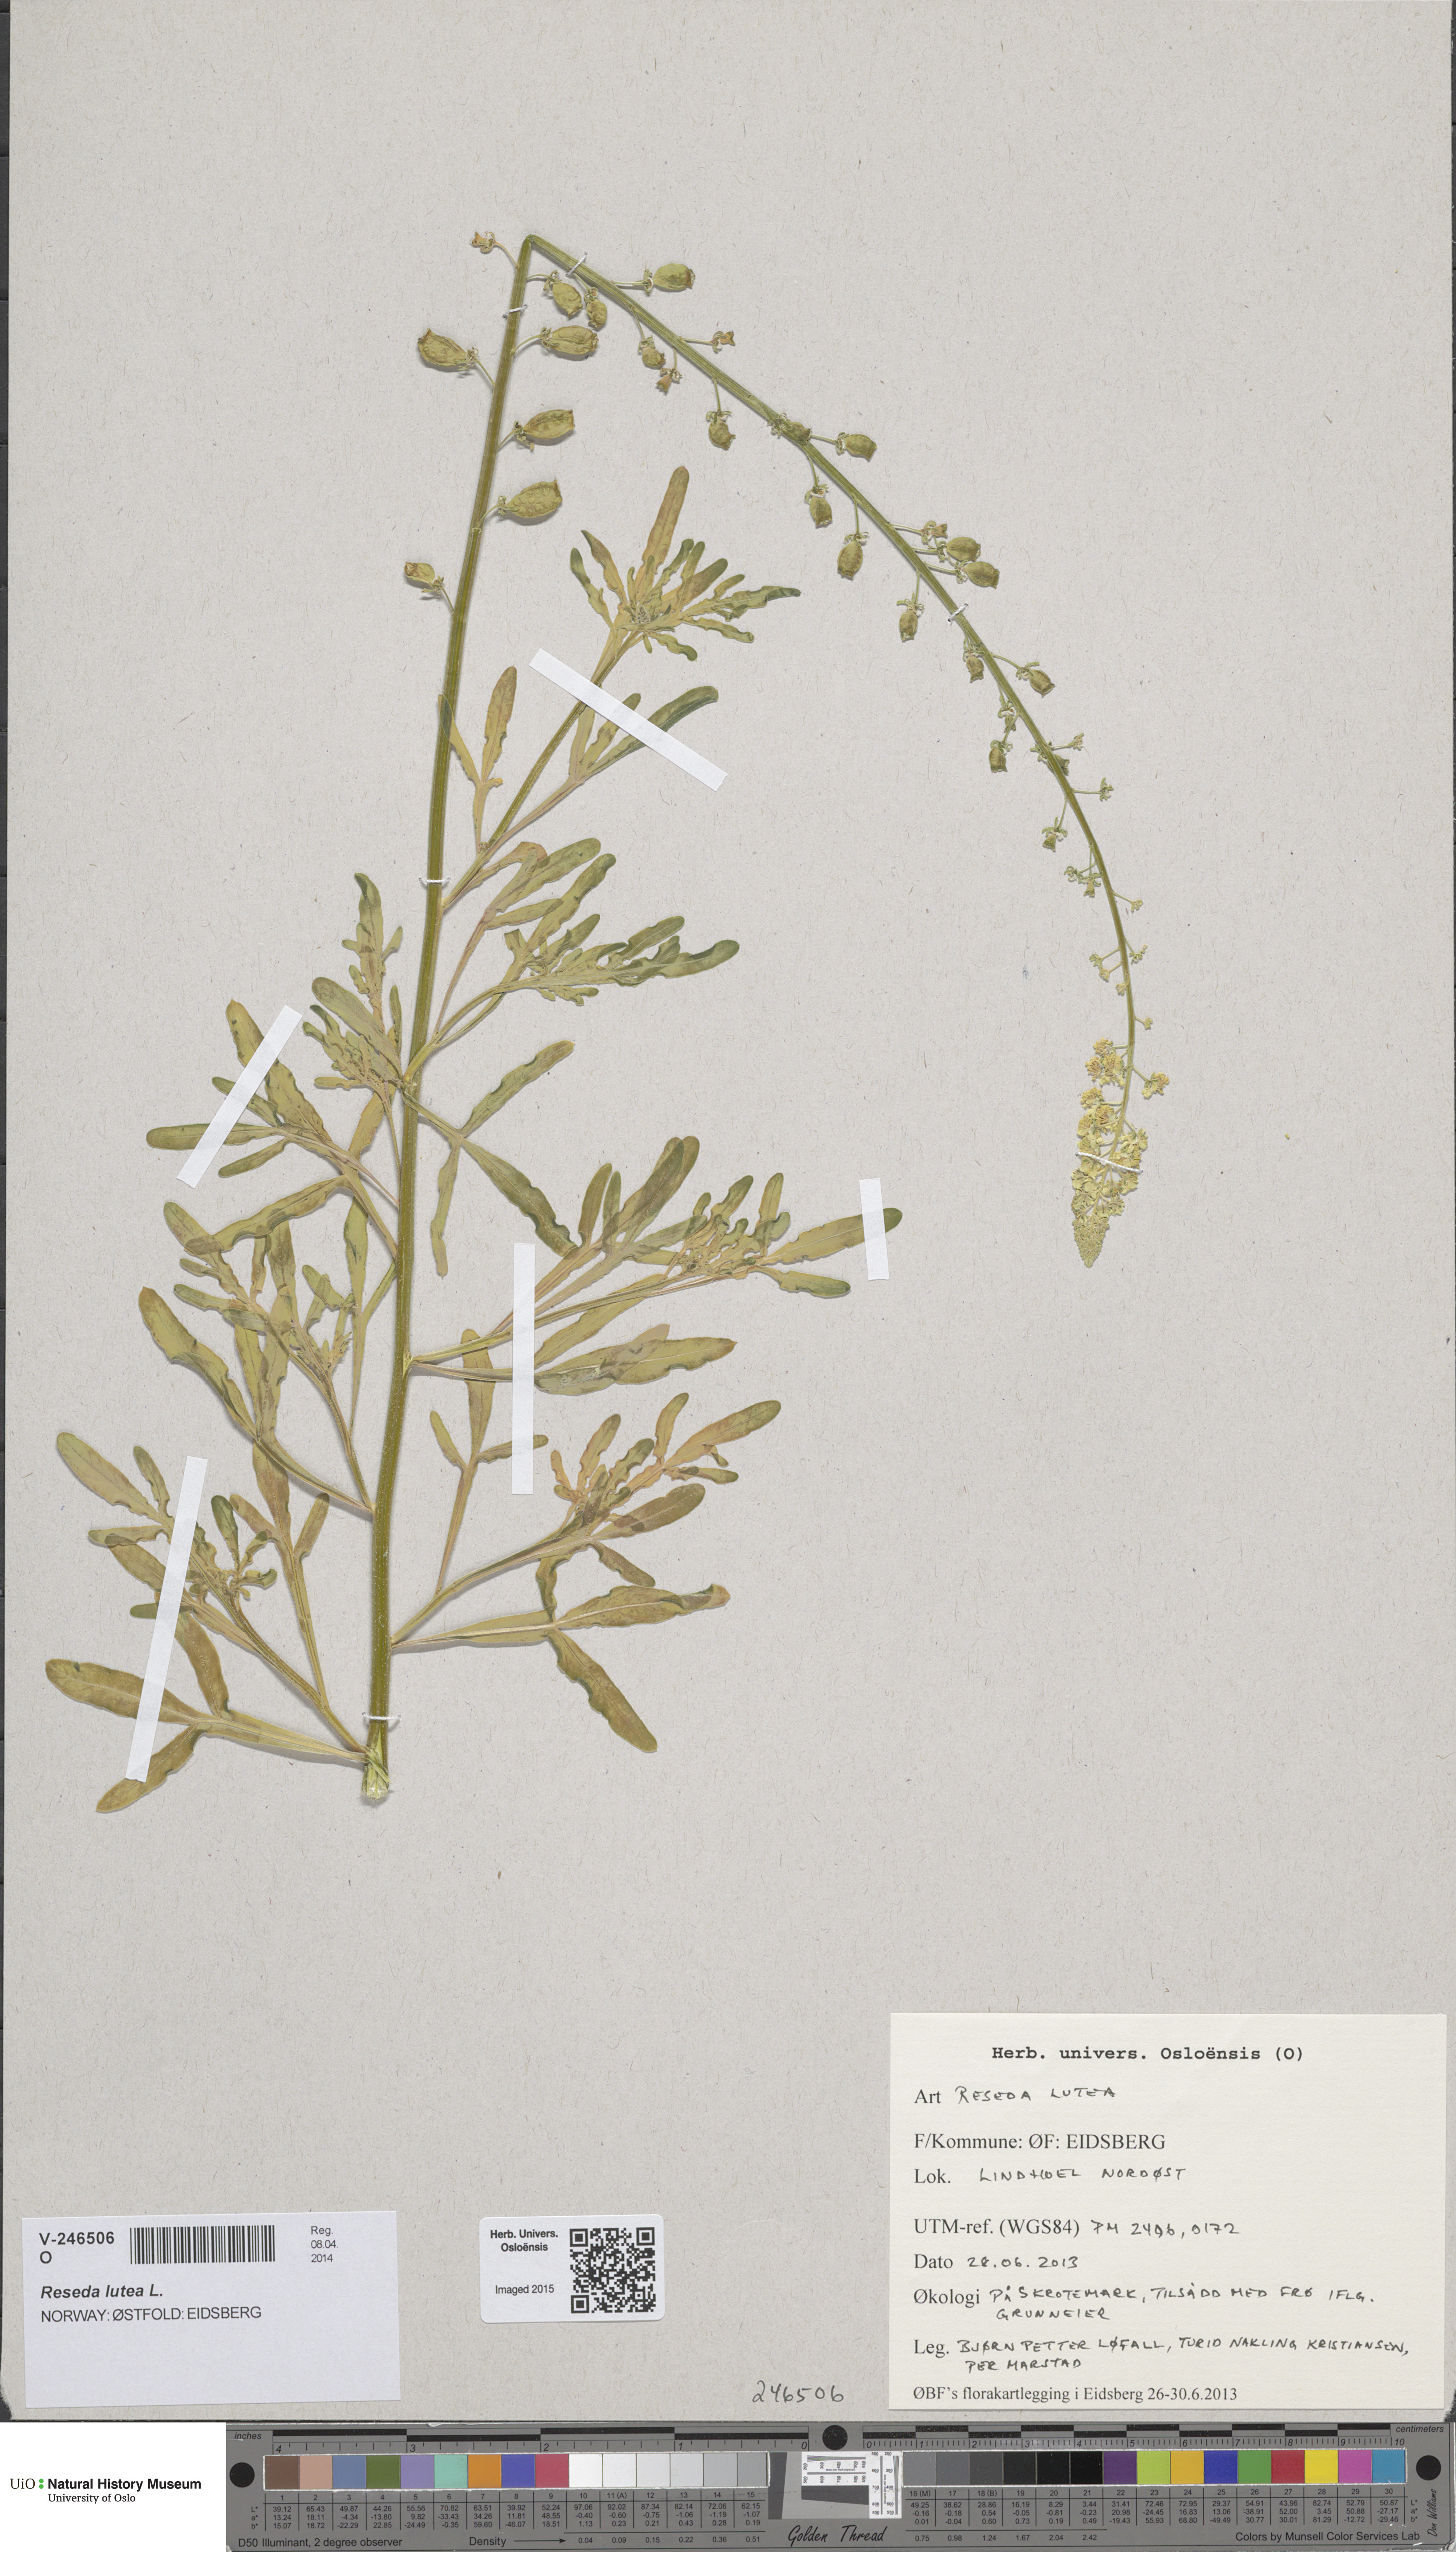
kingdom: Plantae
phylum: Tracheophyta
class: Magnoliopsida
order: Brassicales
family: Resedaceae
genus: Reseda
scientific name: Reseda lutea
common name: Wild mignonette
